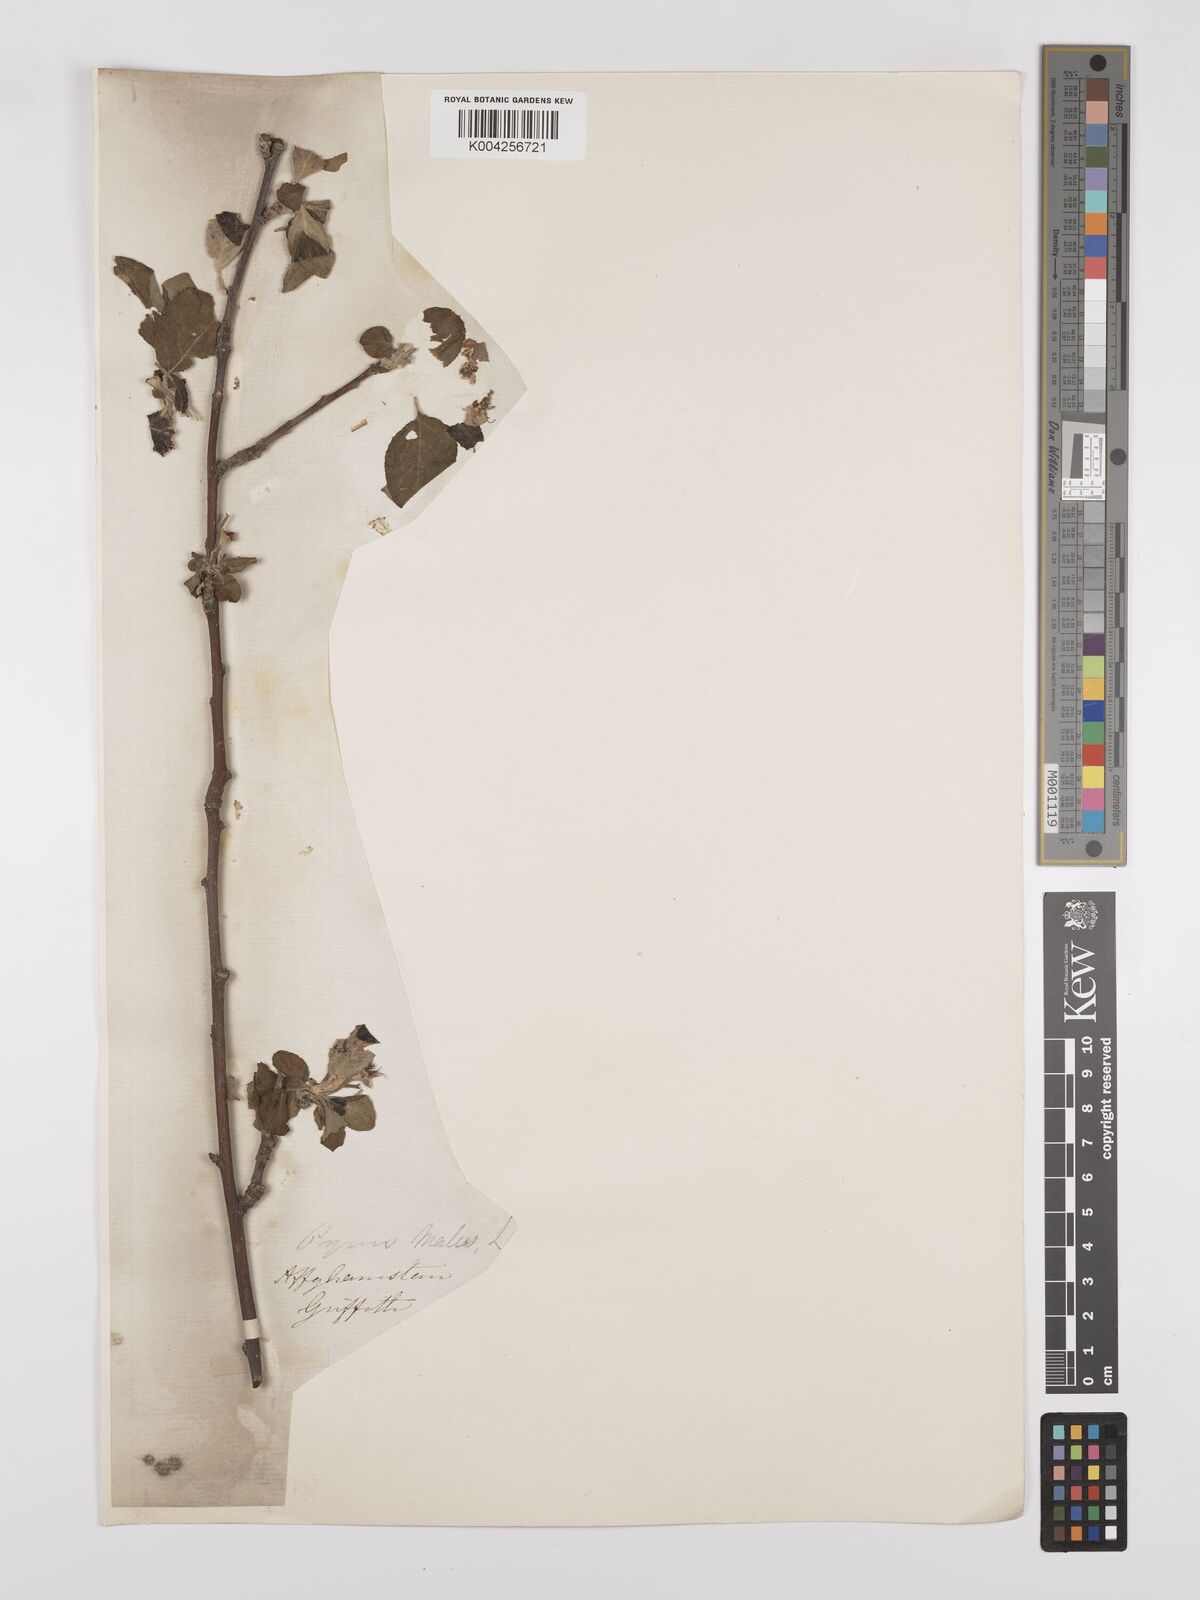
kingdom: Plantae
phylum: Tracheophyta
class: Magnoliopsida
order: Rosales
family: Rosaceae
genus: Malus
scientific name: Malus orientalis
